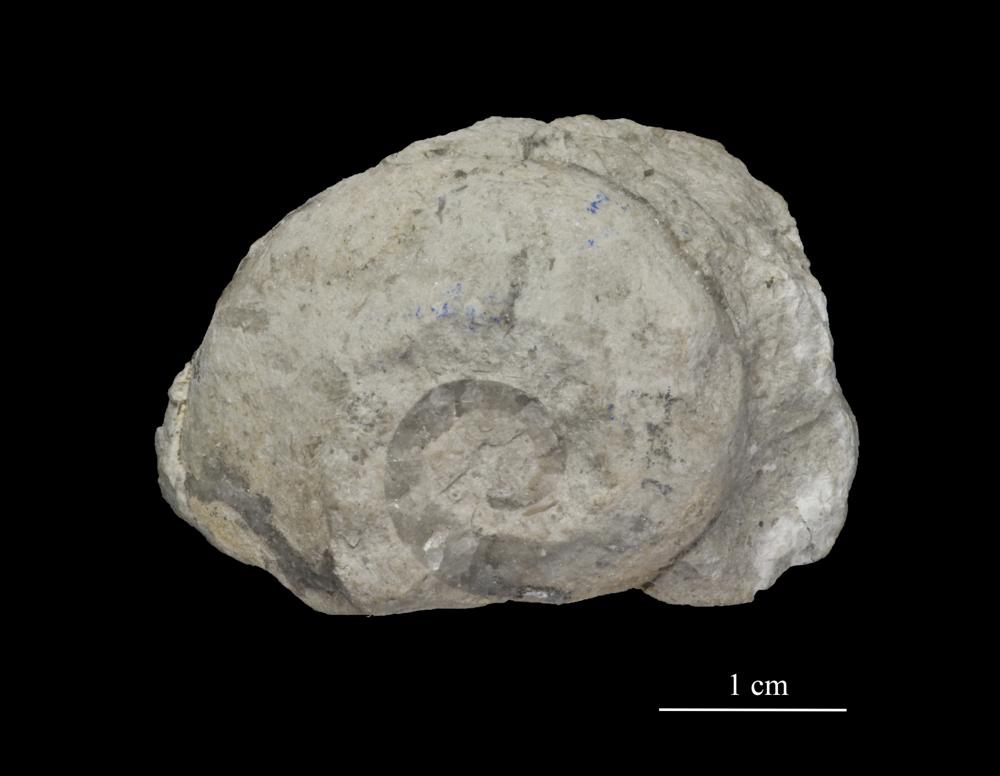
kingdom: Animalia
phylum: Mollusca
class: Gastropoda
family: Lesueurillidae
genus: Eccyliopterus
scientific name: Eccyliopterus regularis
